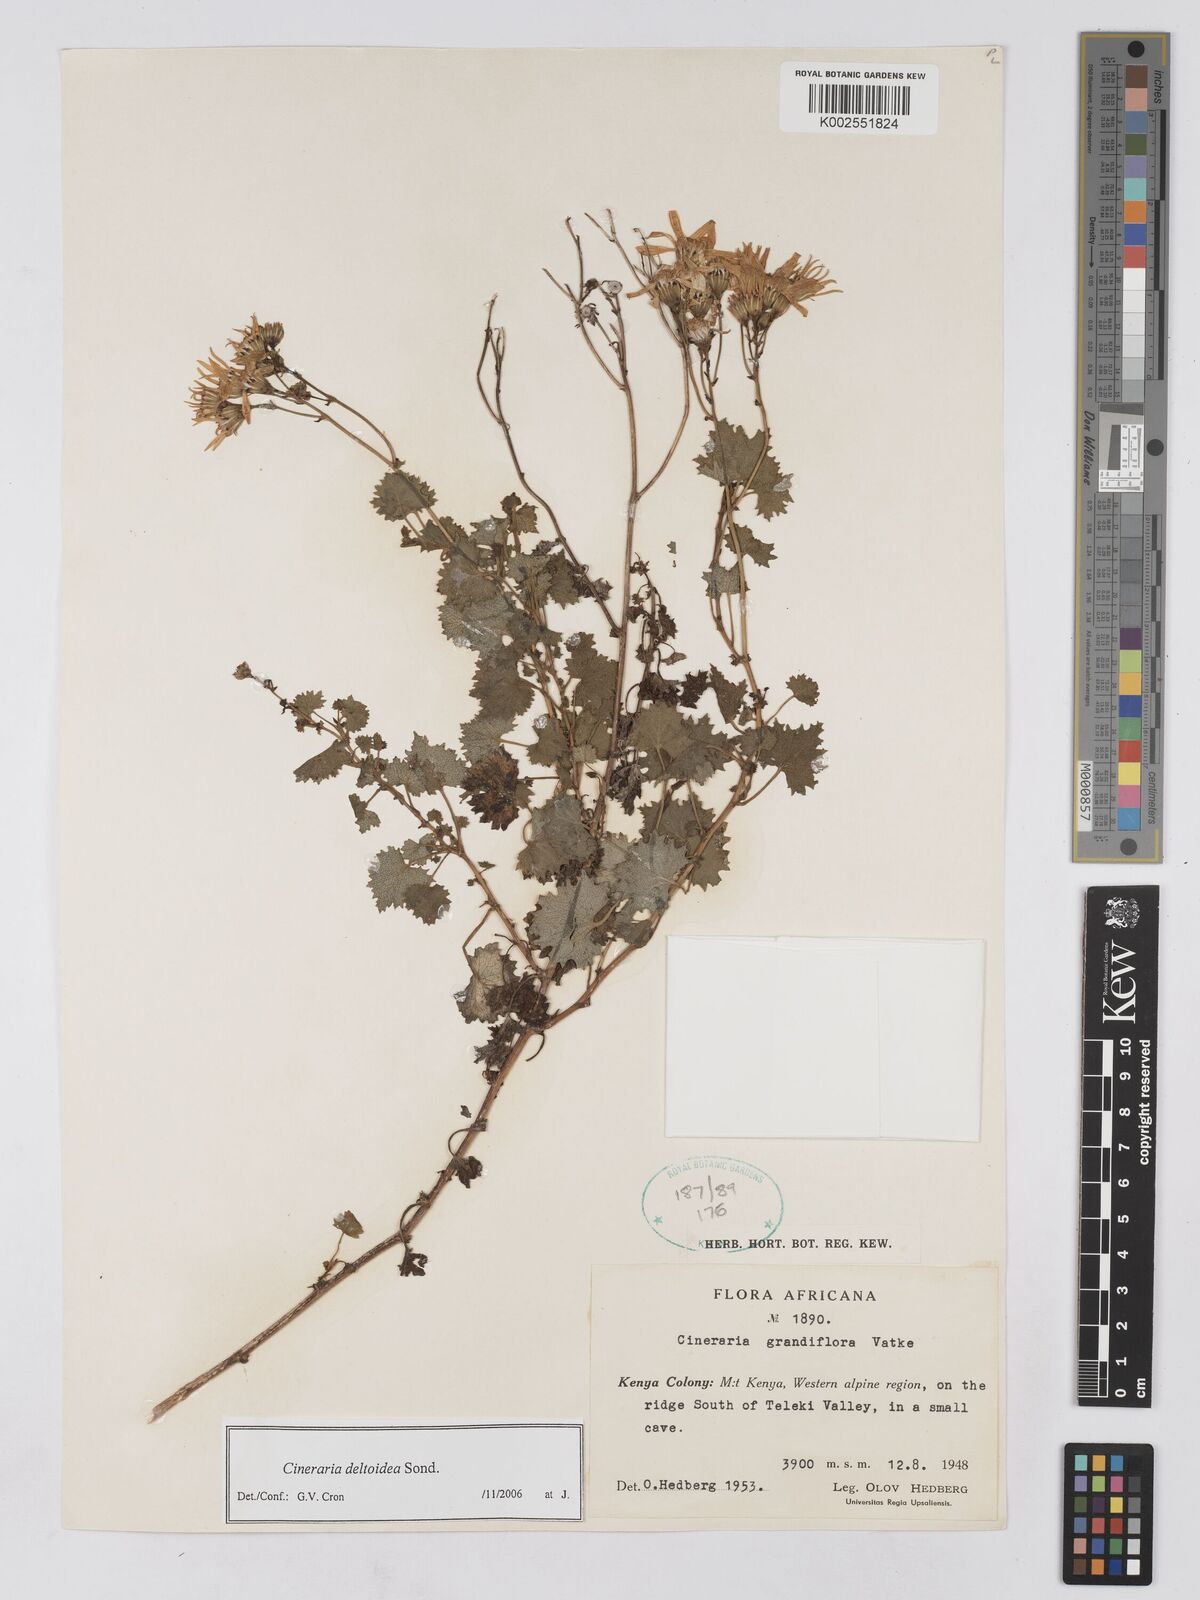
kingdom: Plantae
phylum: Tracheophyta
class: Magnoliopsida
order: Asterales
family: Asteraceae
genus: Cineraria
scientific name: Cineraria deltoidea
